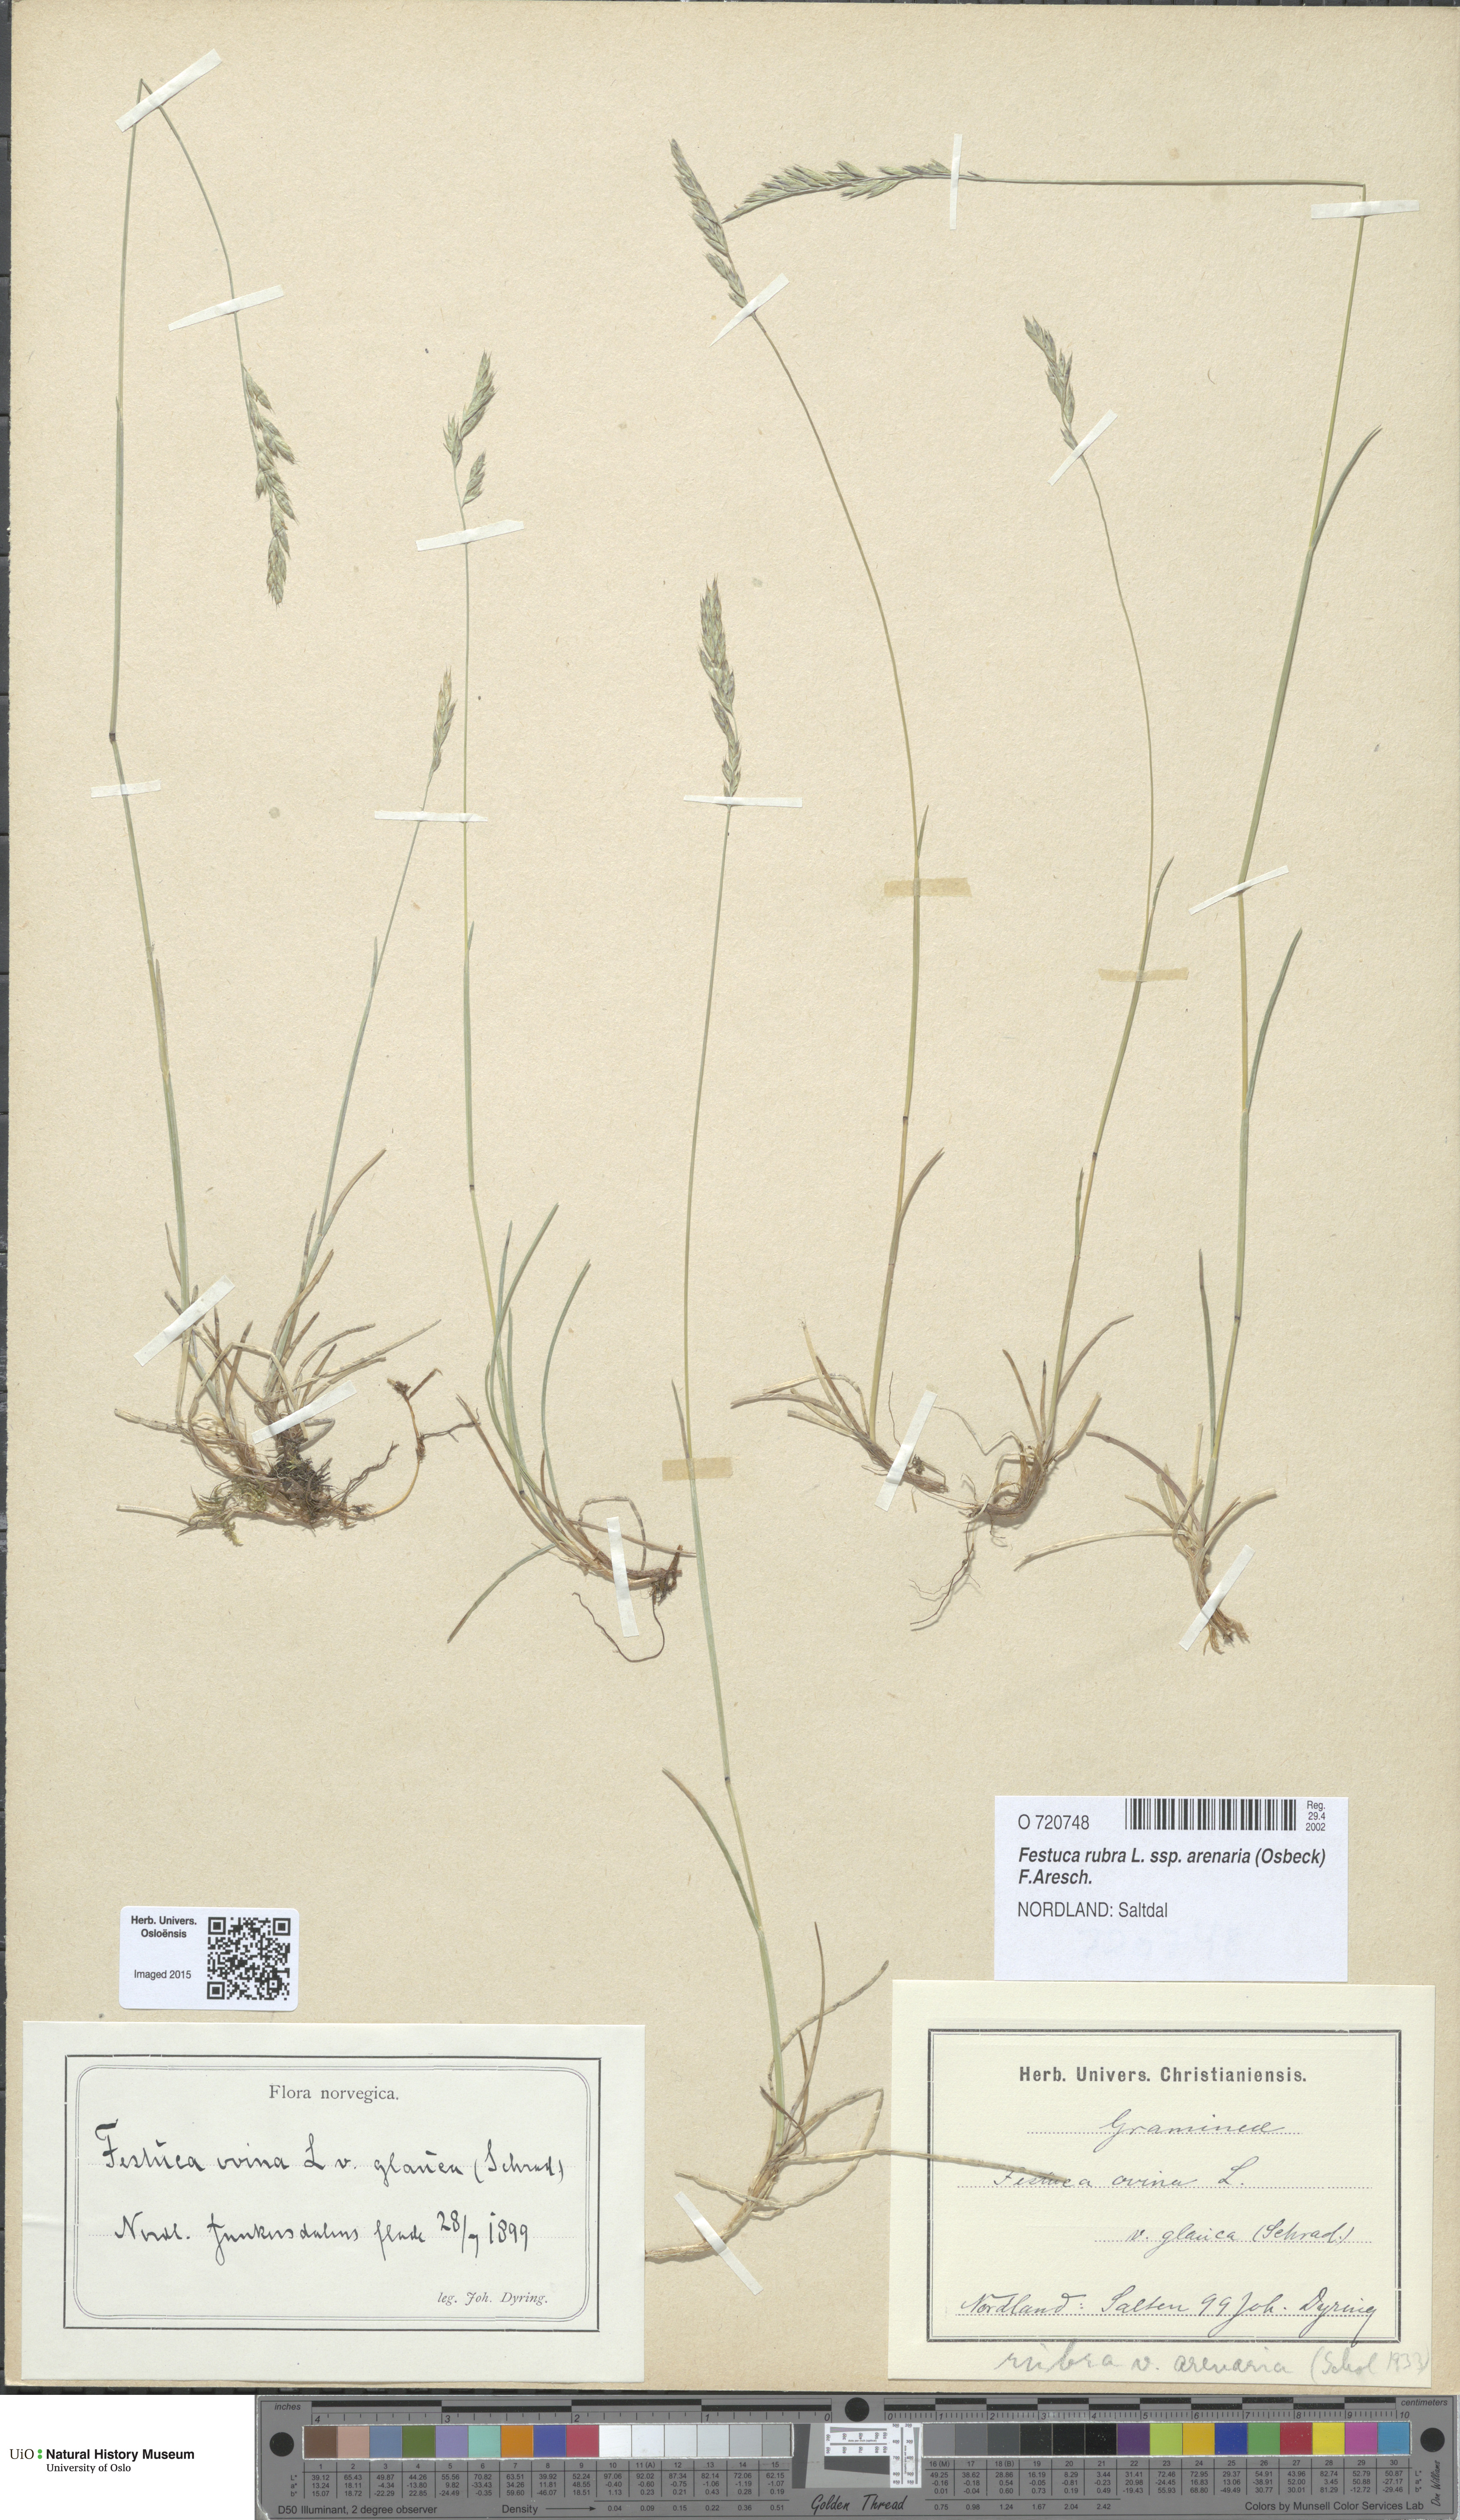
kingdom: Plantae
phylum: Tracheophyta
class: Liliopsida
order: Poales
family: Poaceae
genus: Festuca
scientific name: Festuca rubra
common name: Red fescue
